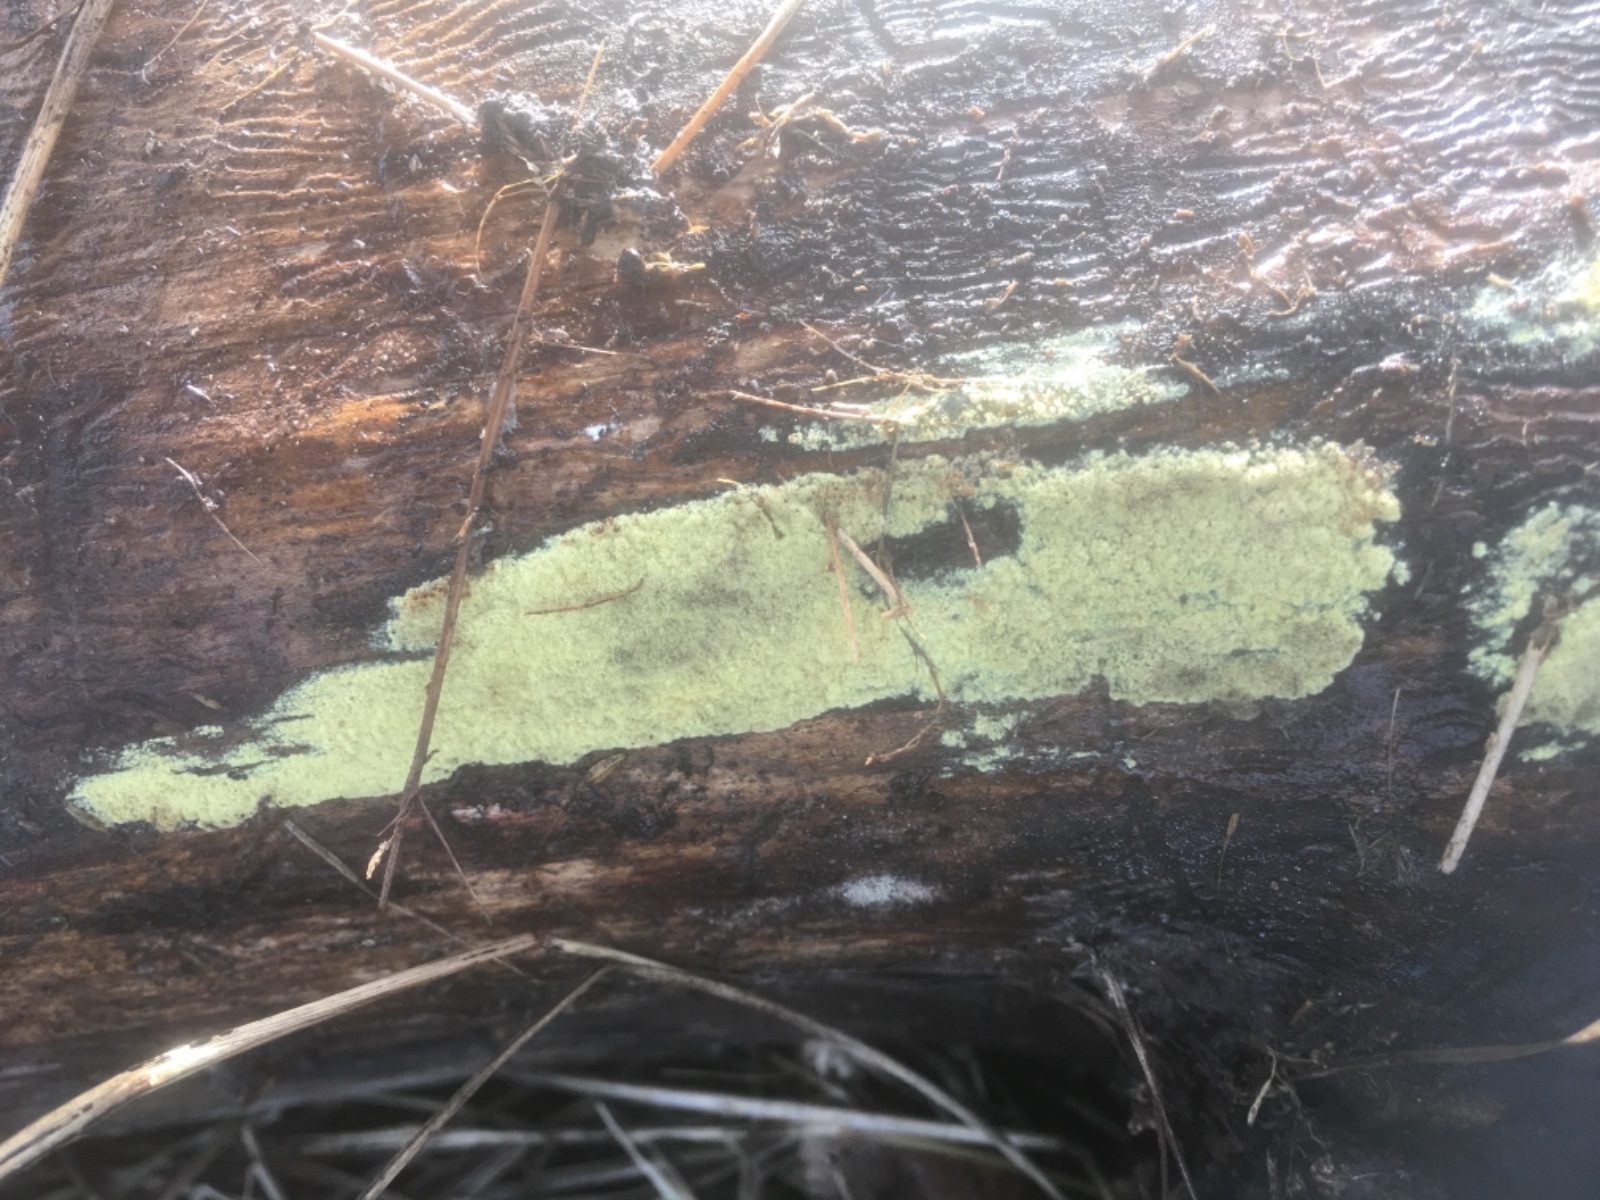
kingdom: Fungi
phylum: Ascomycota
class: Sordariomycetes
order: Xylariales
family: Hypoxylaceae
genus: Hypoxylon
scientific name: Hypoxylon
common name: kulbær
